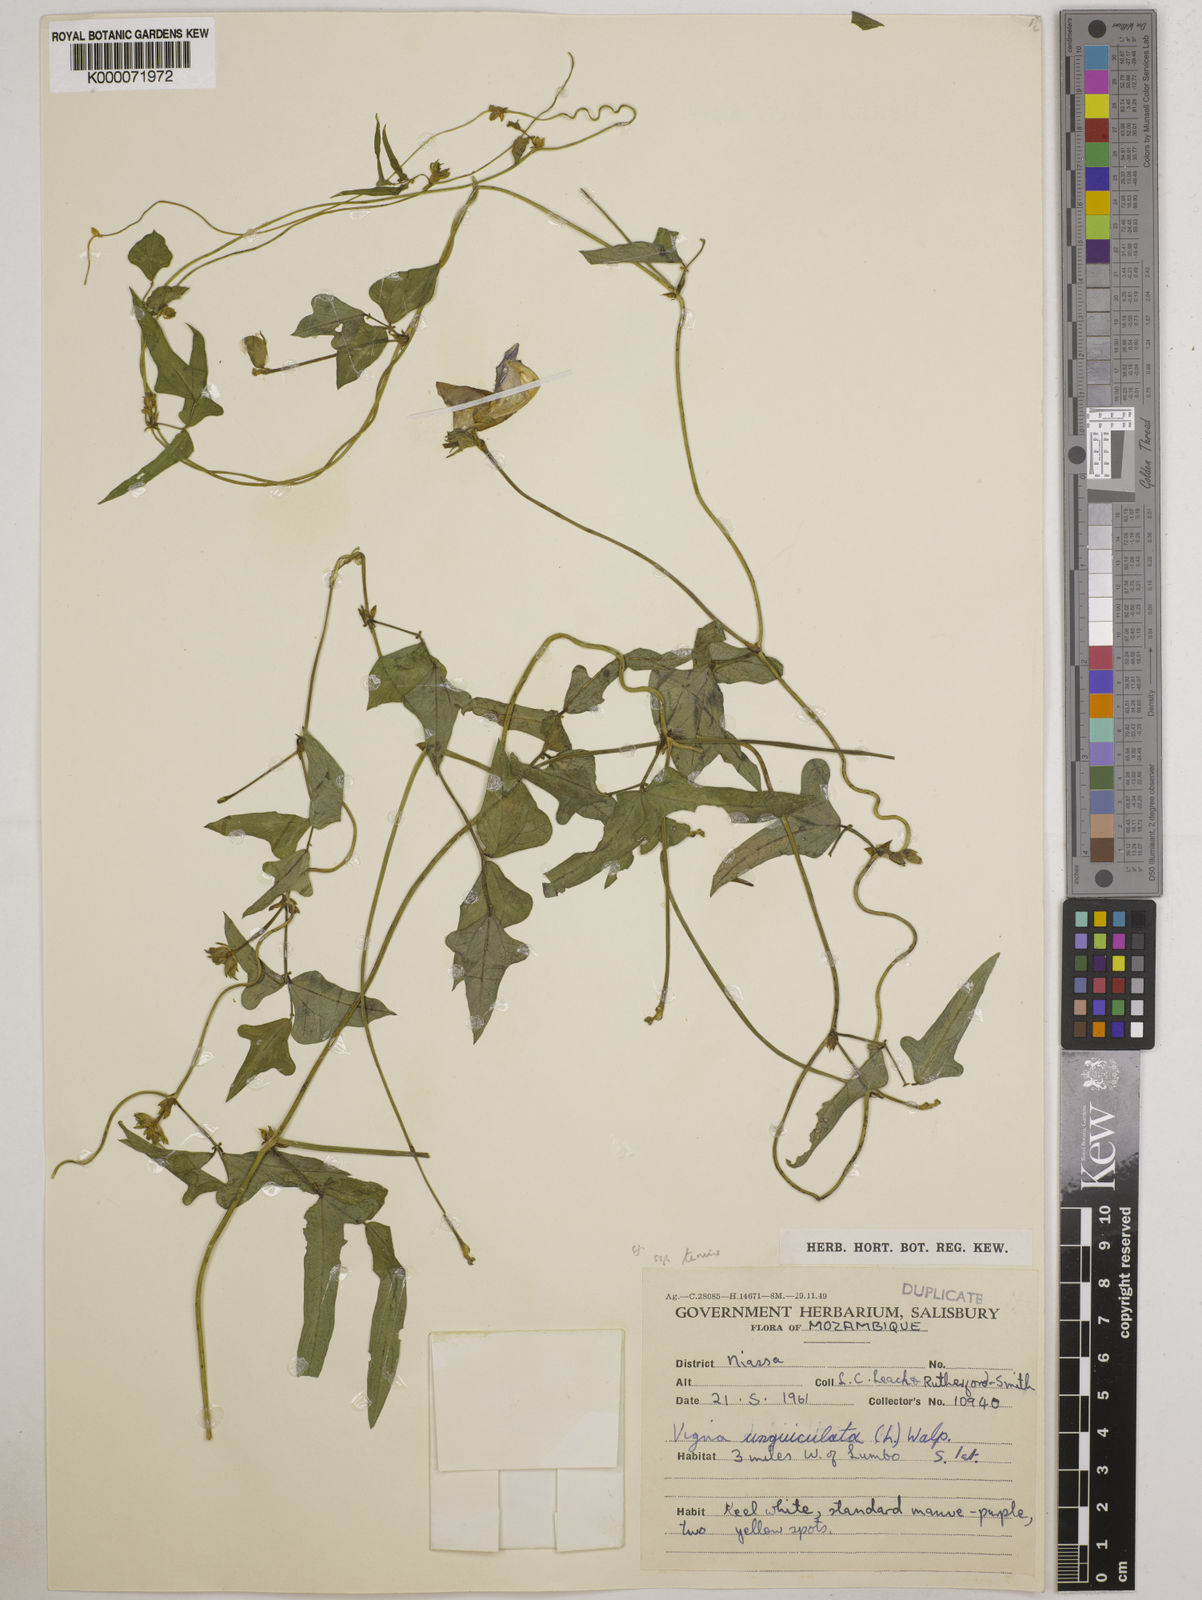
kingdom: Plantae
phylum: Tracheophyta
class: Magnoliopsida
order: Fabales
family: Fabaceae
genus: Vigna
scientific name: Vigna unguiculata
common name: Cowpea
